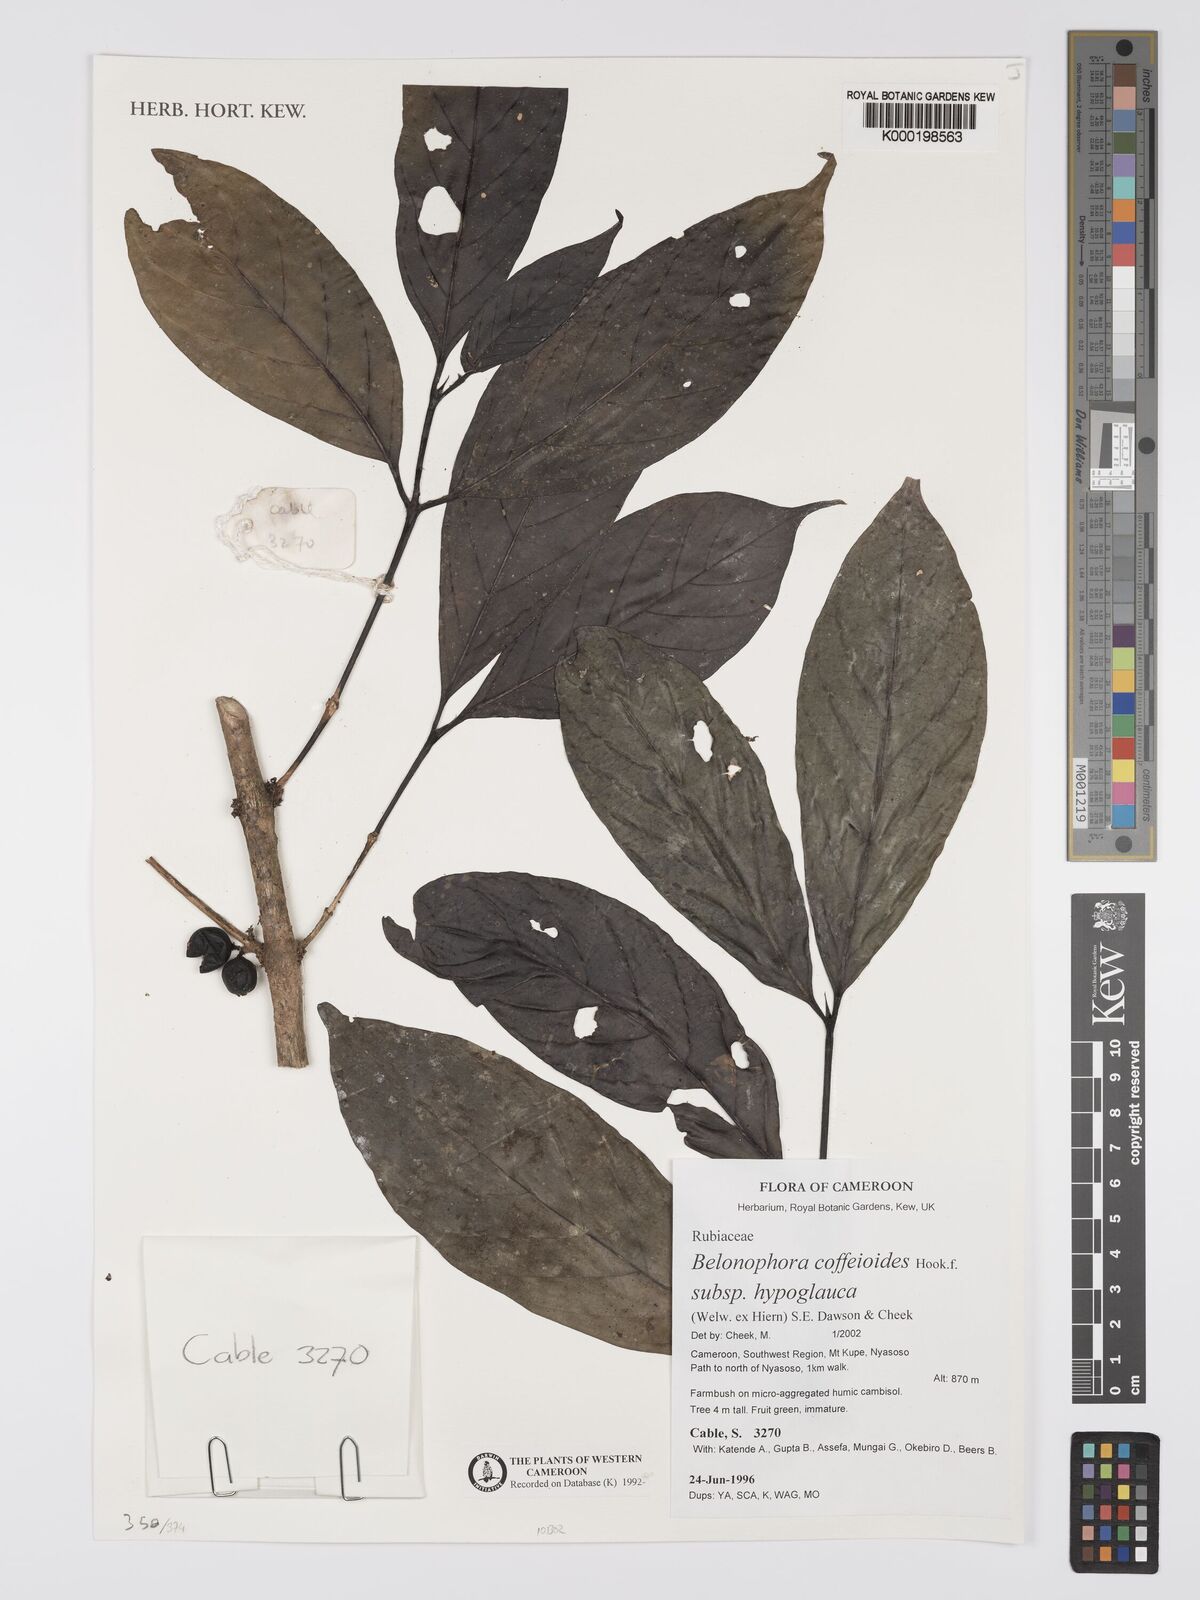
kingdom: Plantae
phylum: Tracheophyta
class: Magnoliopsida
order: Gentianales
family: Rubiaceae
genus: Belonophora
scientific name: Belonophora
